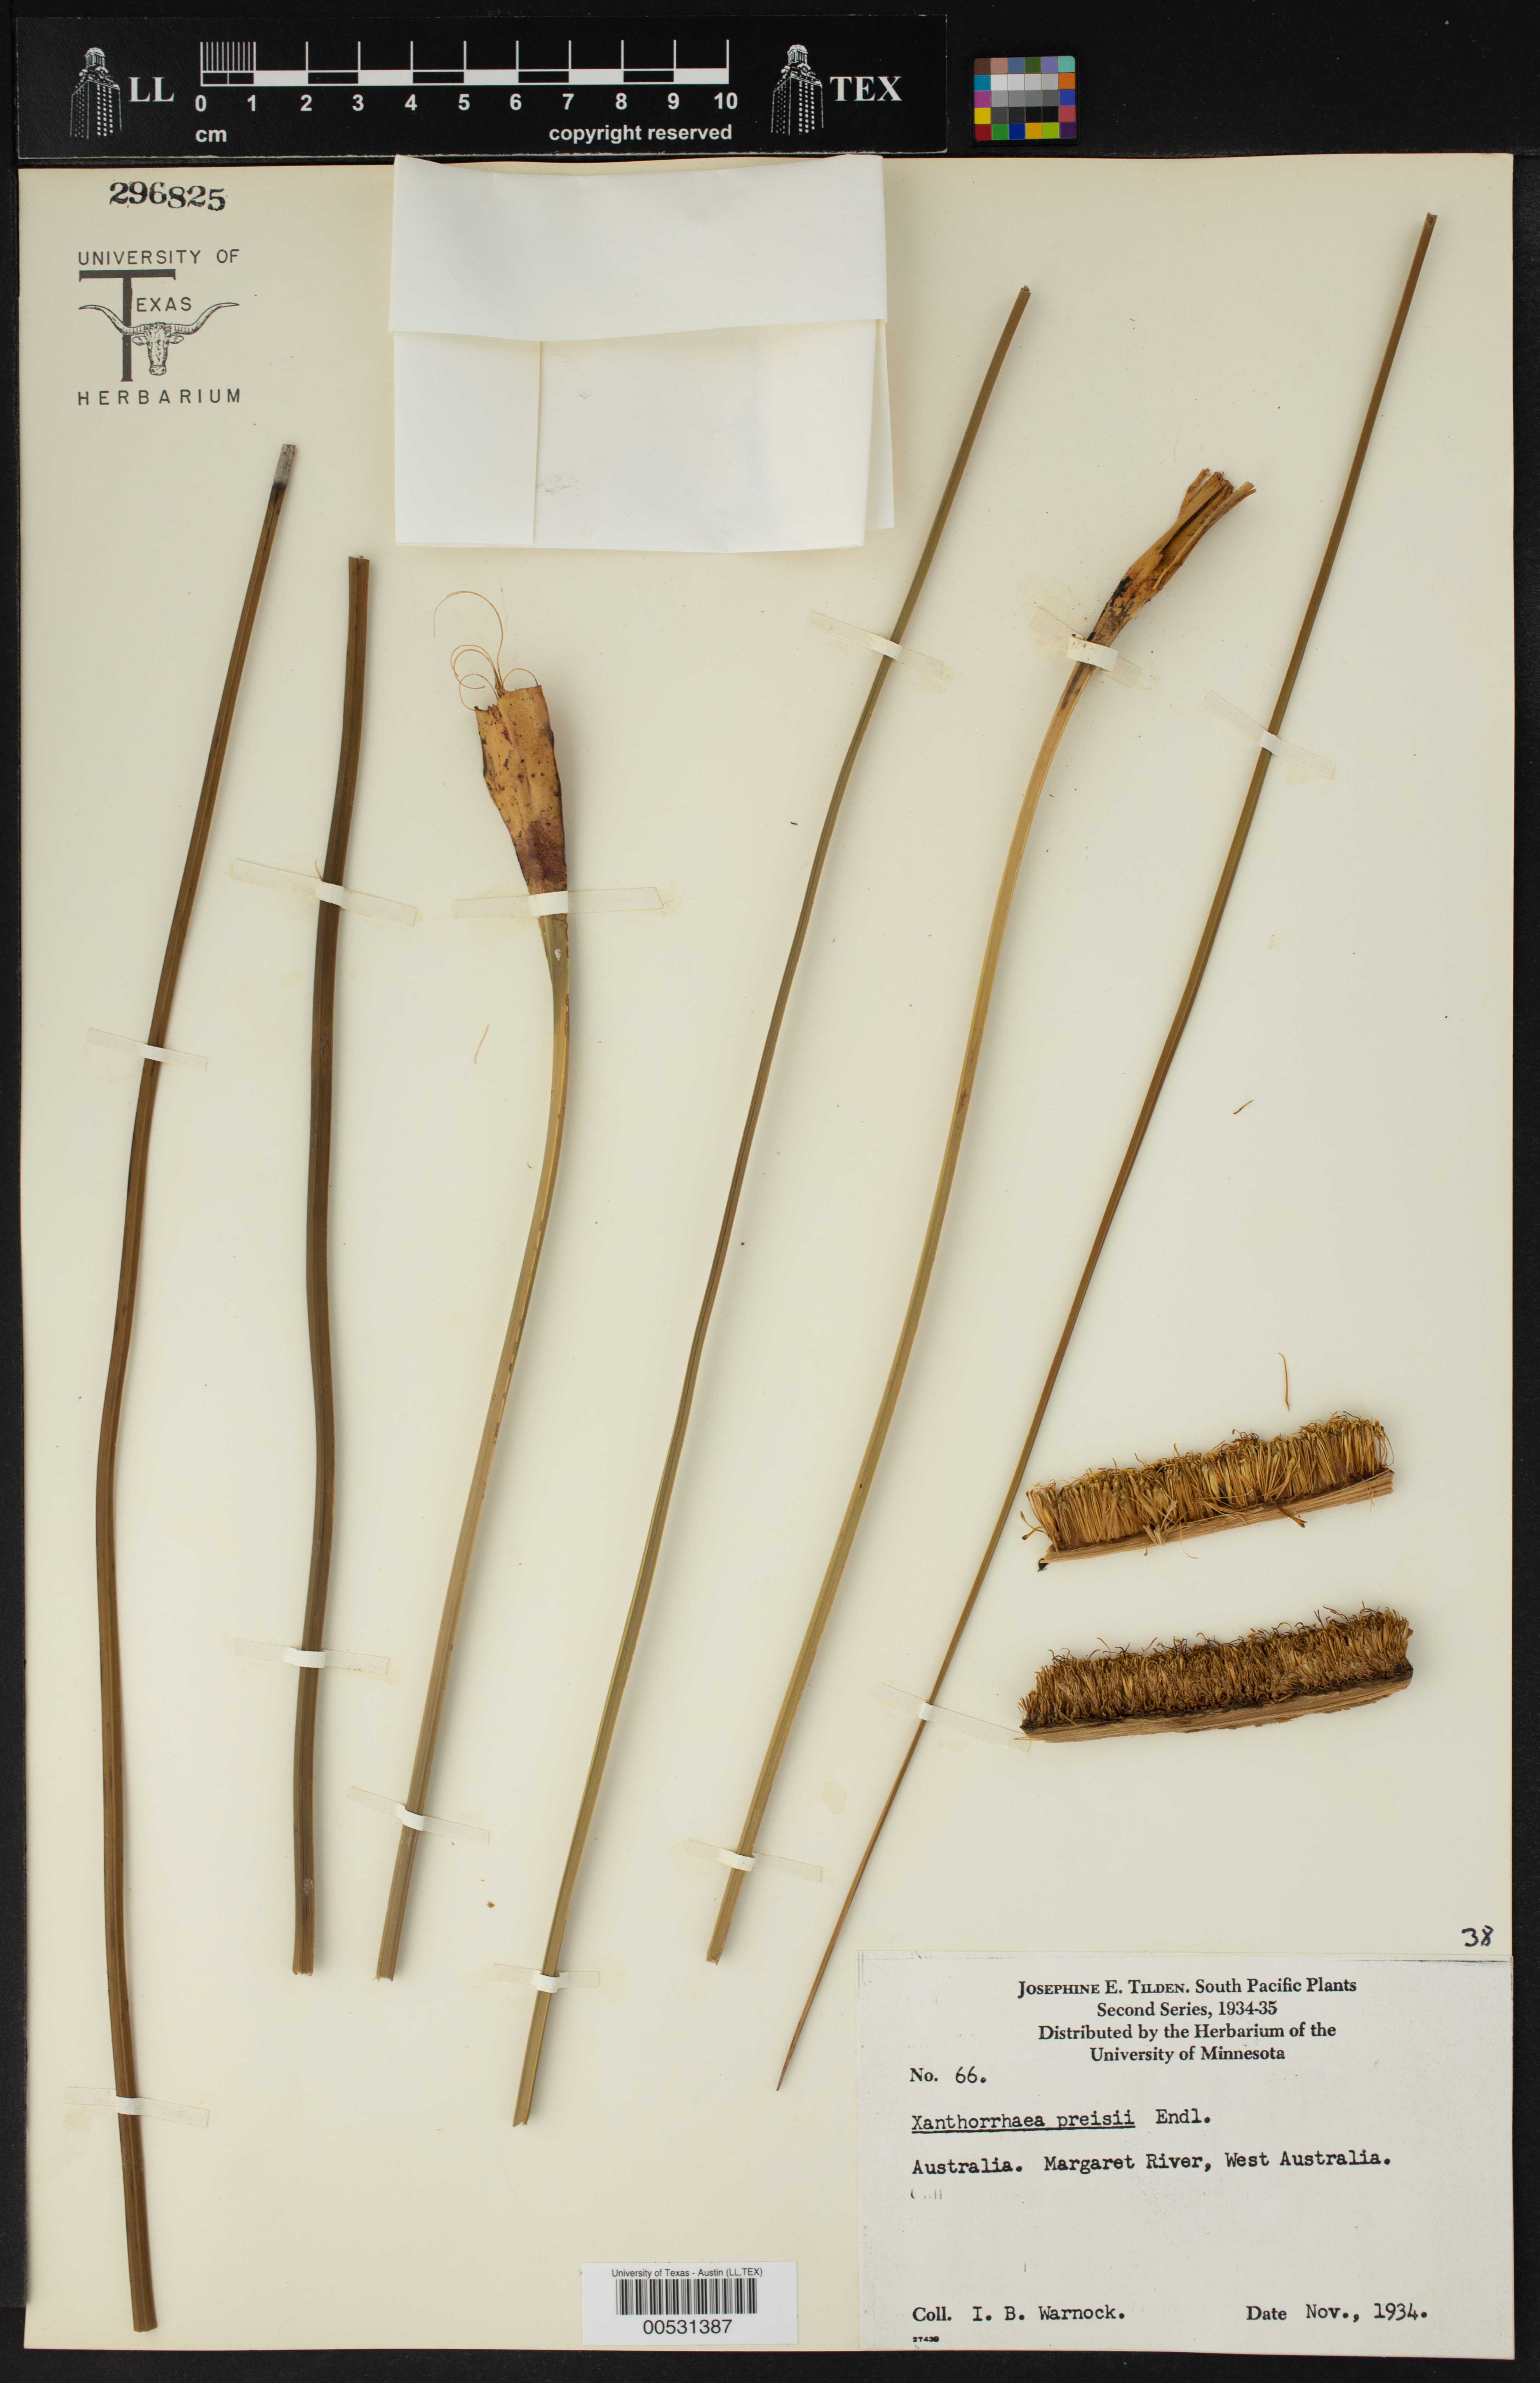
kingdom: Plantae
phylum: Tracheophyta
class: Liliopsida
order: Asparagales
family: Asphodelaceae
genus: Xanthorrhoea
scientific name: Xanthorrhoea preissii
